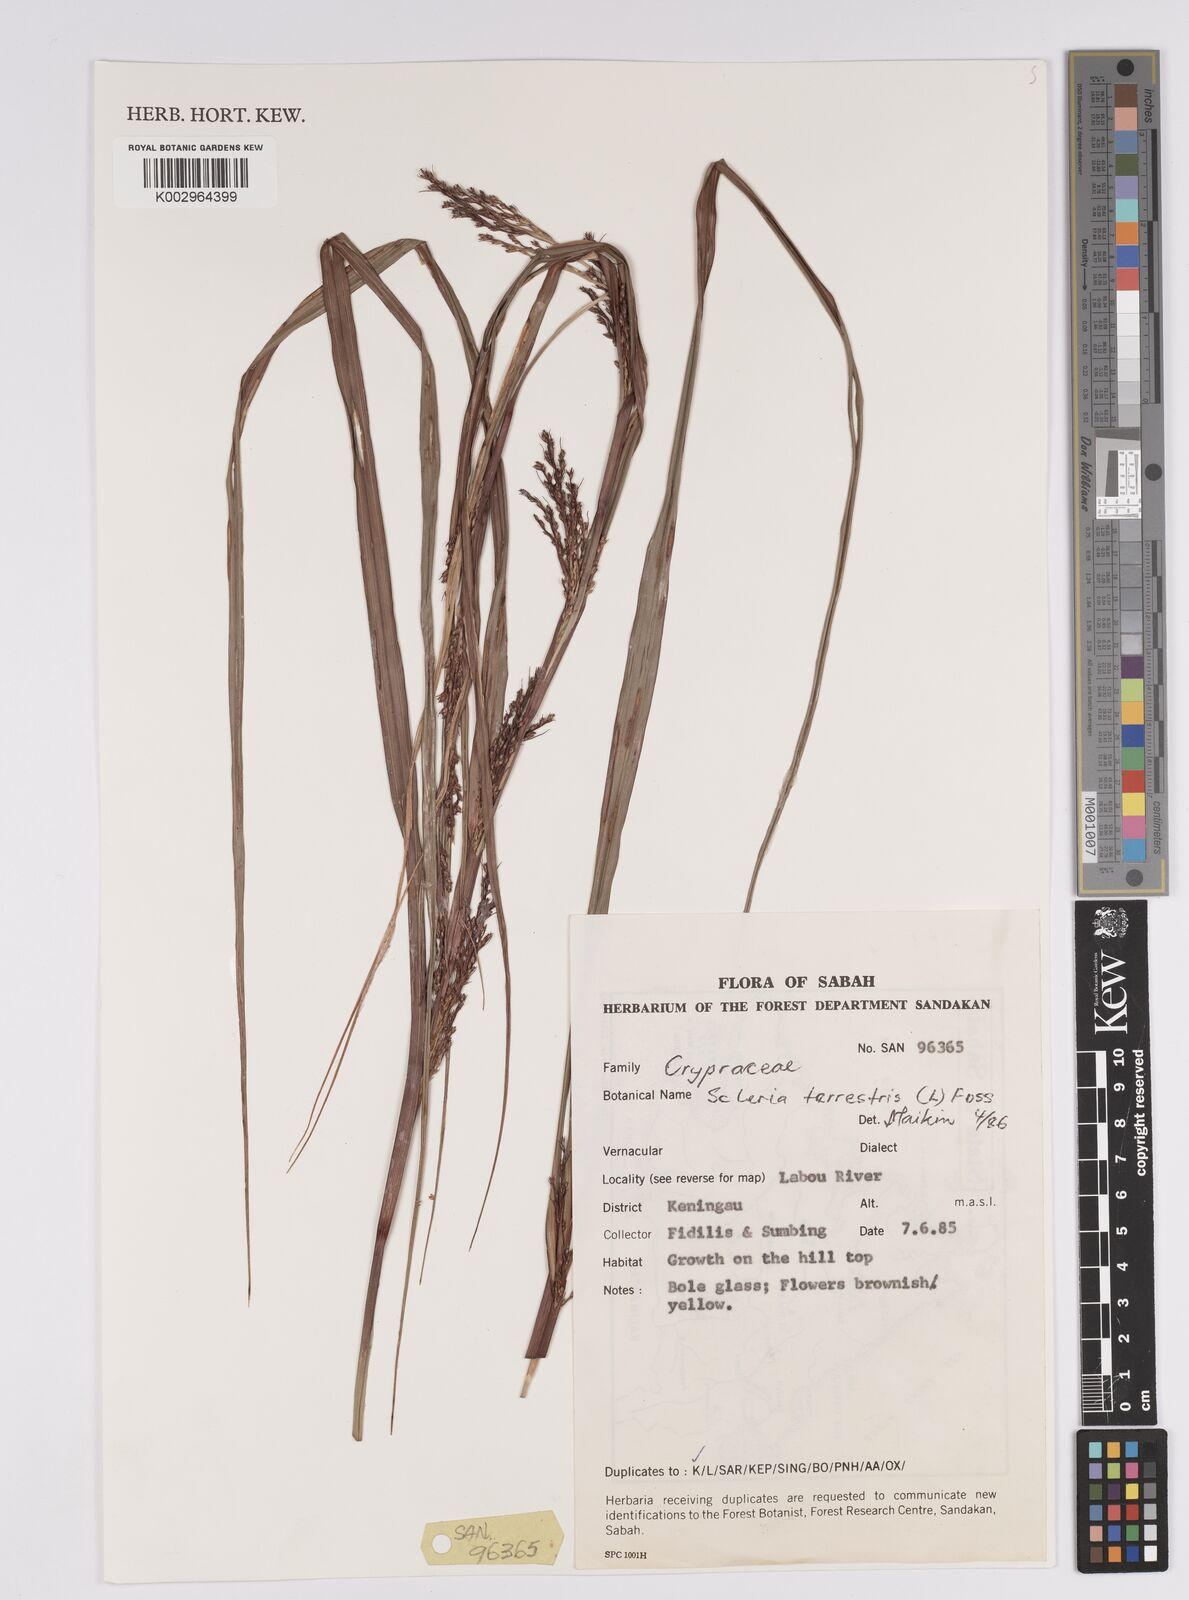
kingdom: Plantae
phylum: Tracheophyta
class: Liliopsida
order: Poales
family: Cyperaceae
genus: Scleria
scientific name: Scleria terrestris
